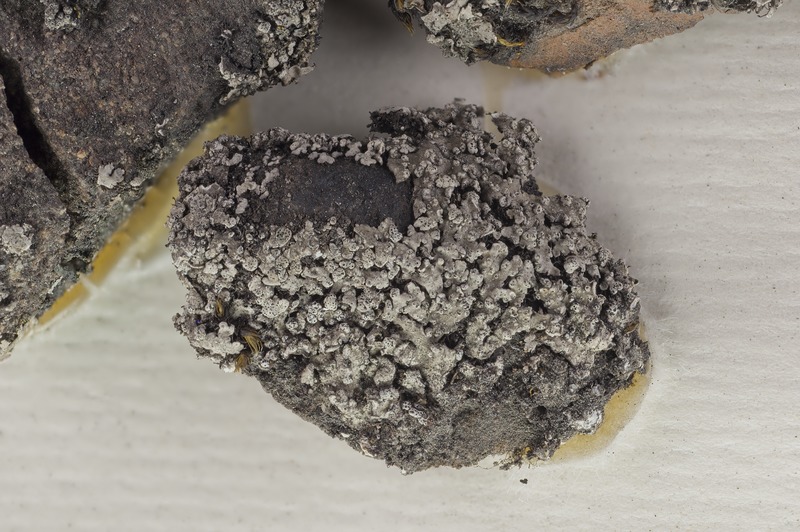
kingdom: Fungi
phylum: Ascomycota
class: Dothideomycetes
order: Trypetheliales
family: Polycoccaceae
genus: Polycoccum
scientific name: Polycoccum pulvinatum
